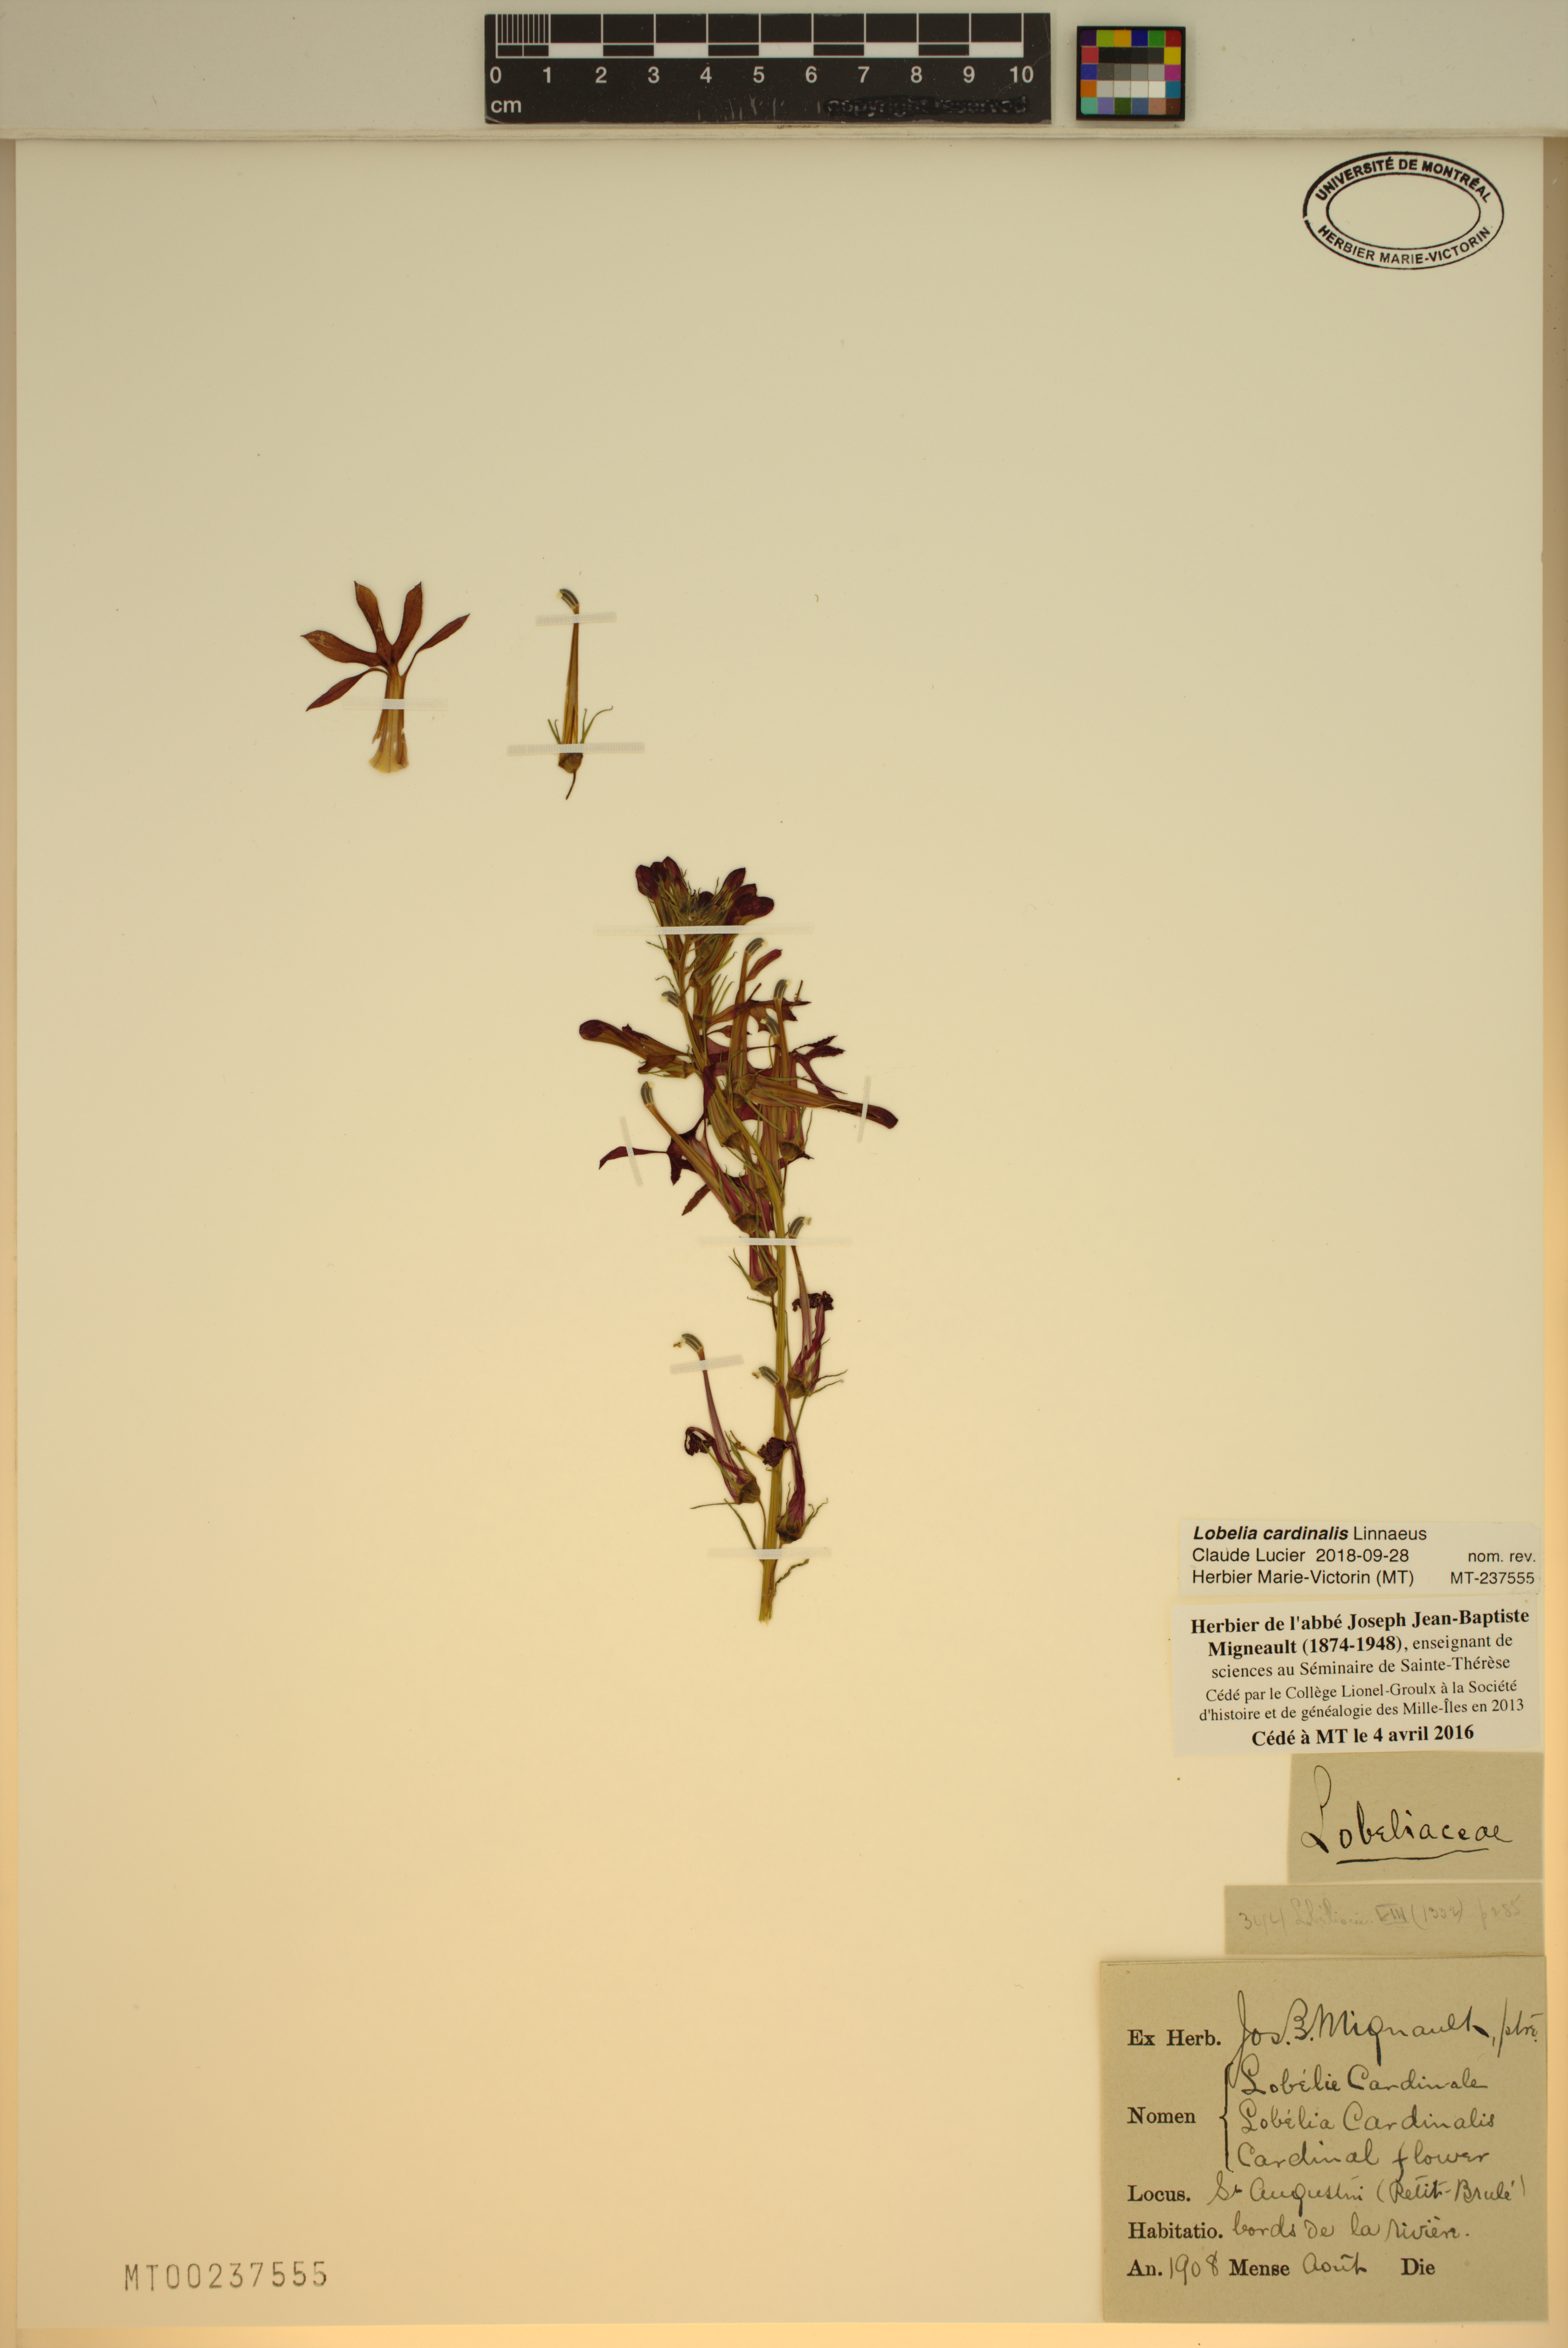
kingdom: Plantae
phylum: Tracheophyta
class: Magnoliopsida
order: Asterales
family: Campanulaceae
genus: Lobelia
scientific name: Lobelia cardinalis
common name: Cardinal flower
